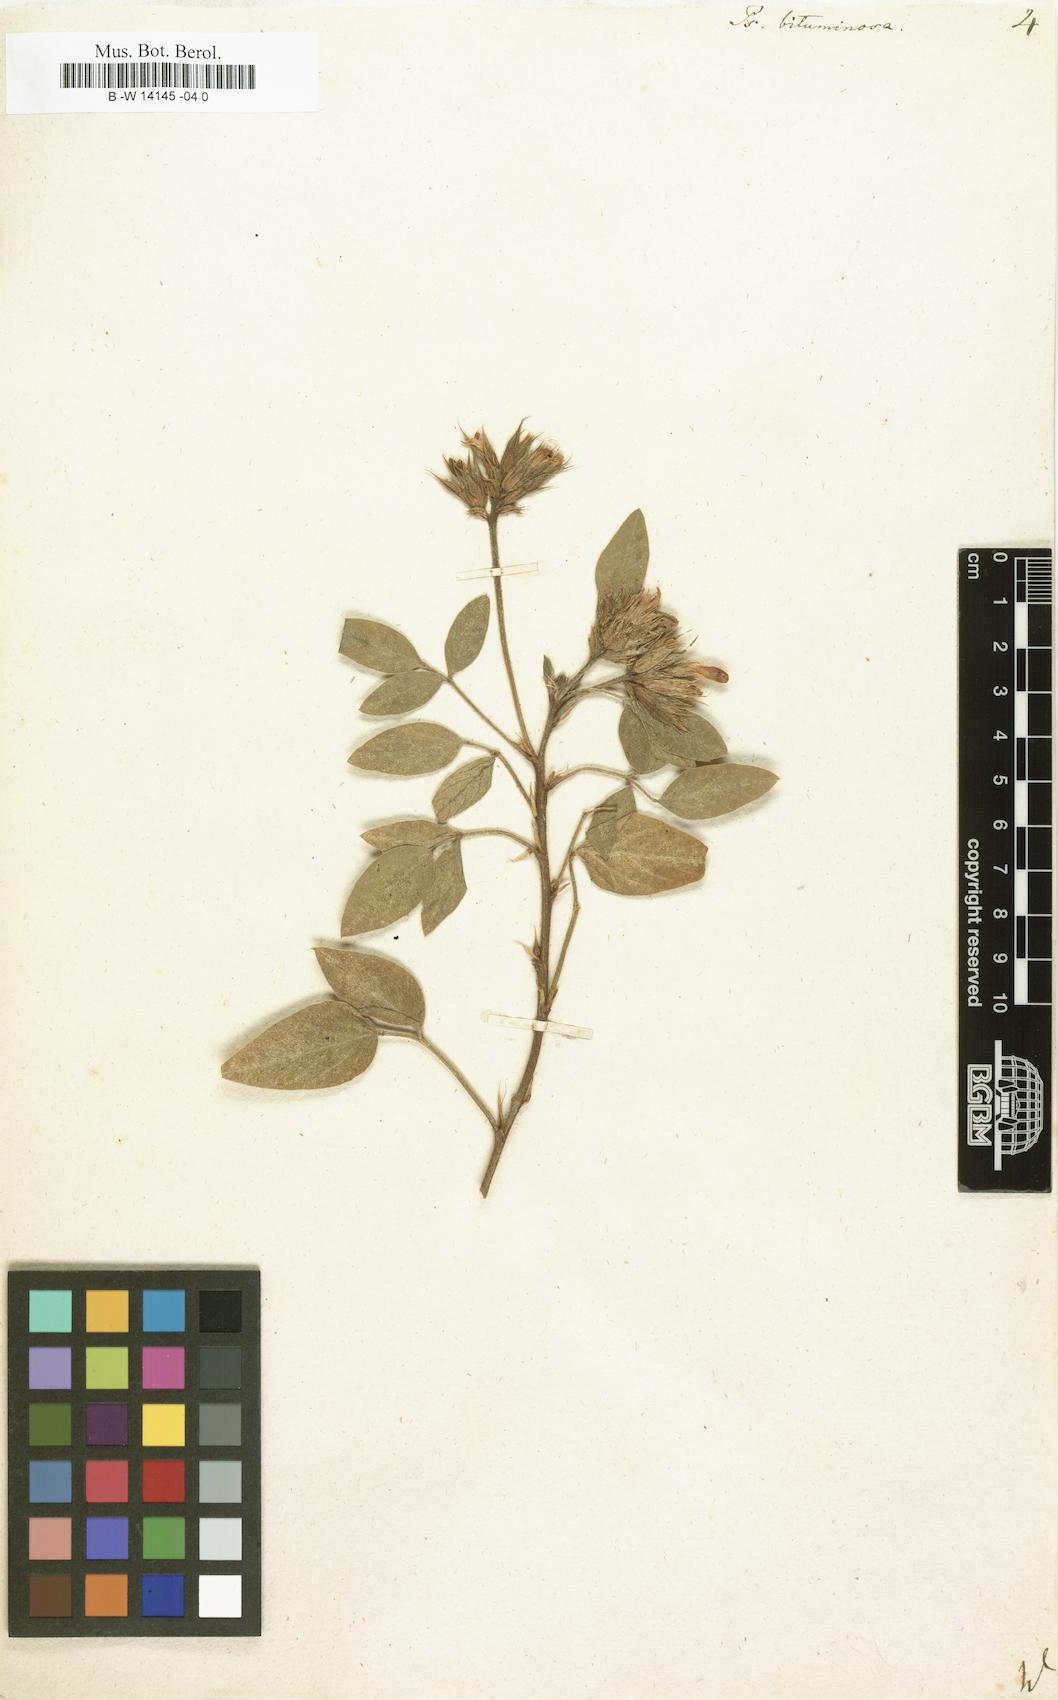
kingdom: Plantae
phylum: Tracheophyta
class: Magnoliopsida
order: Fabales
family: Fabaceae
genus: Bituminaria
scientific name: Bituminaria bituminosa
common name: Arabian pea
